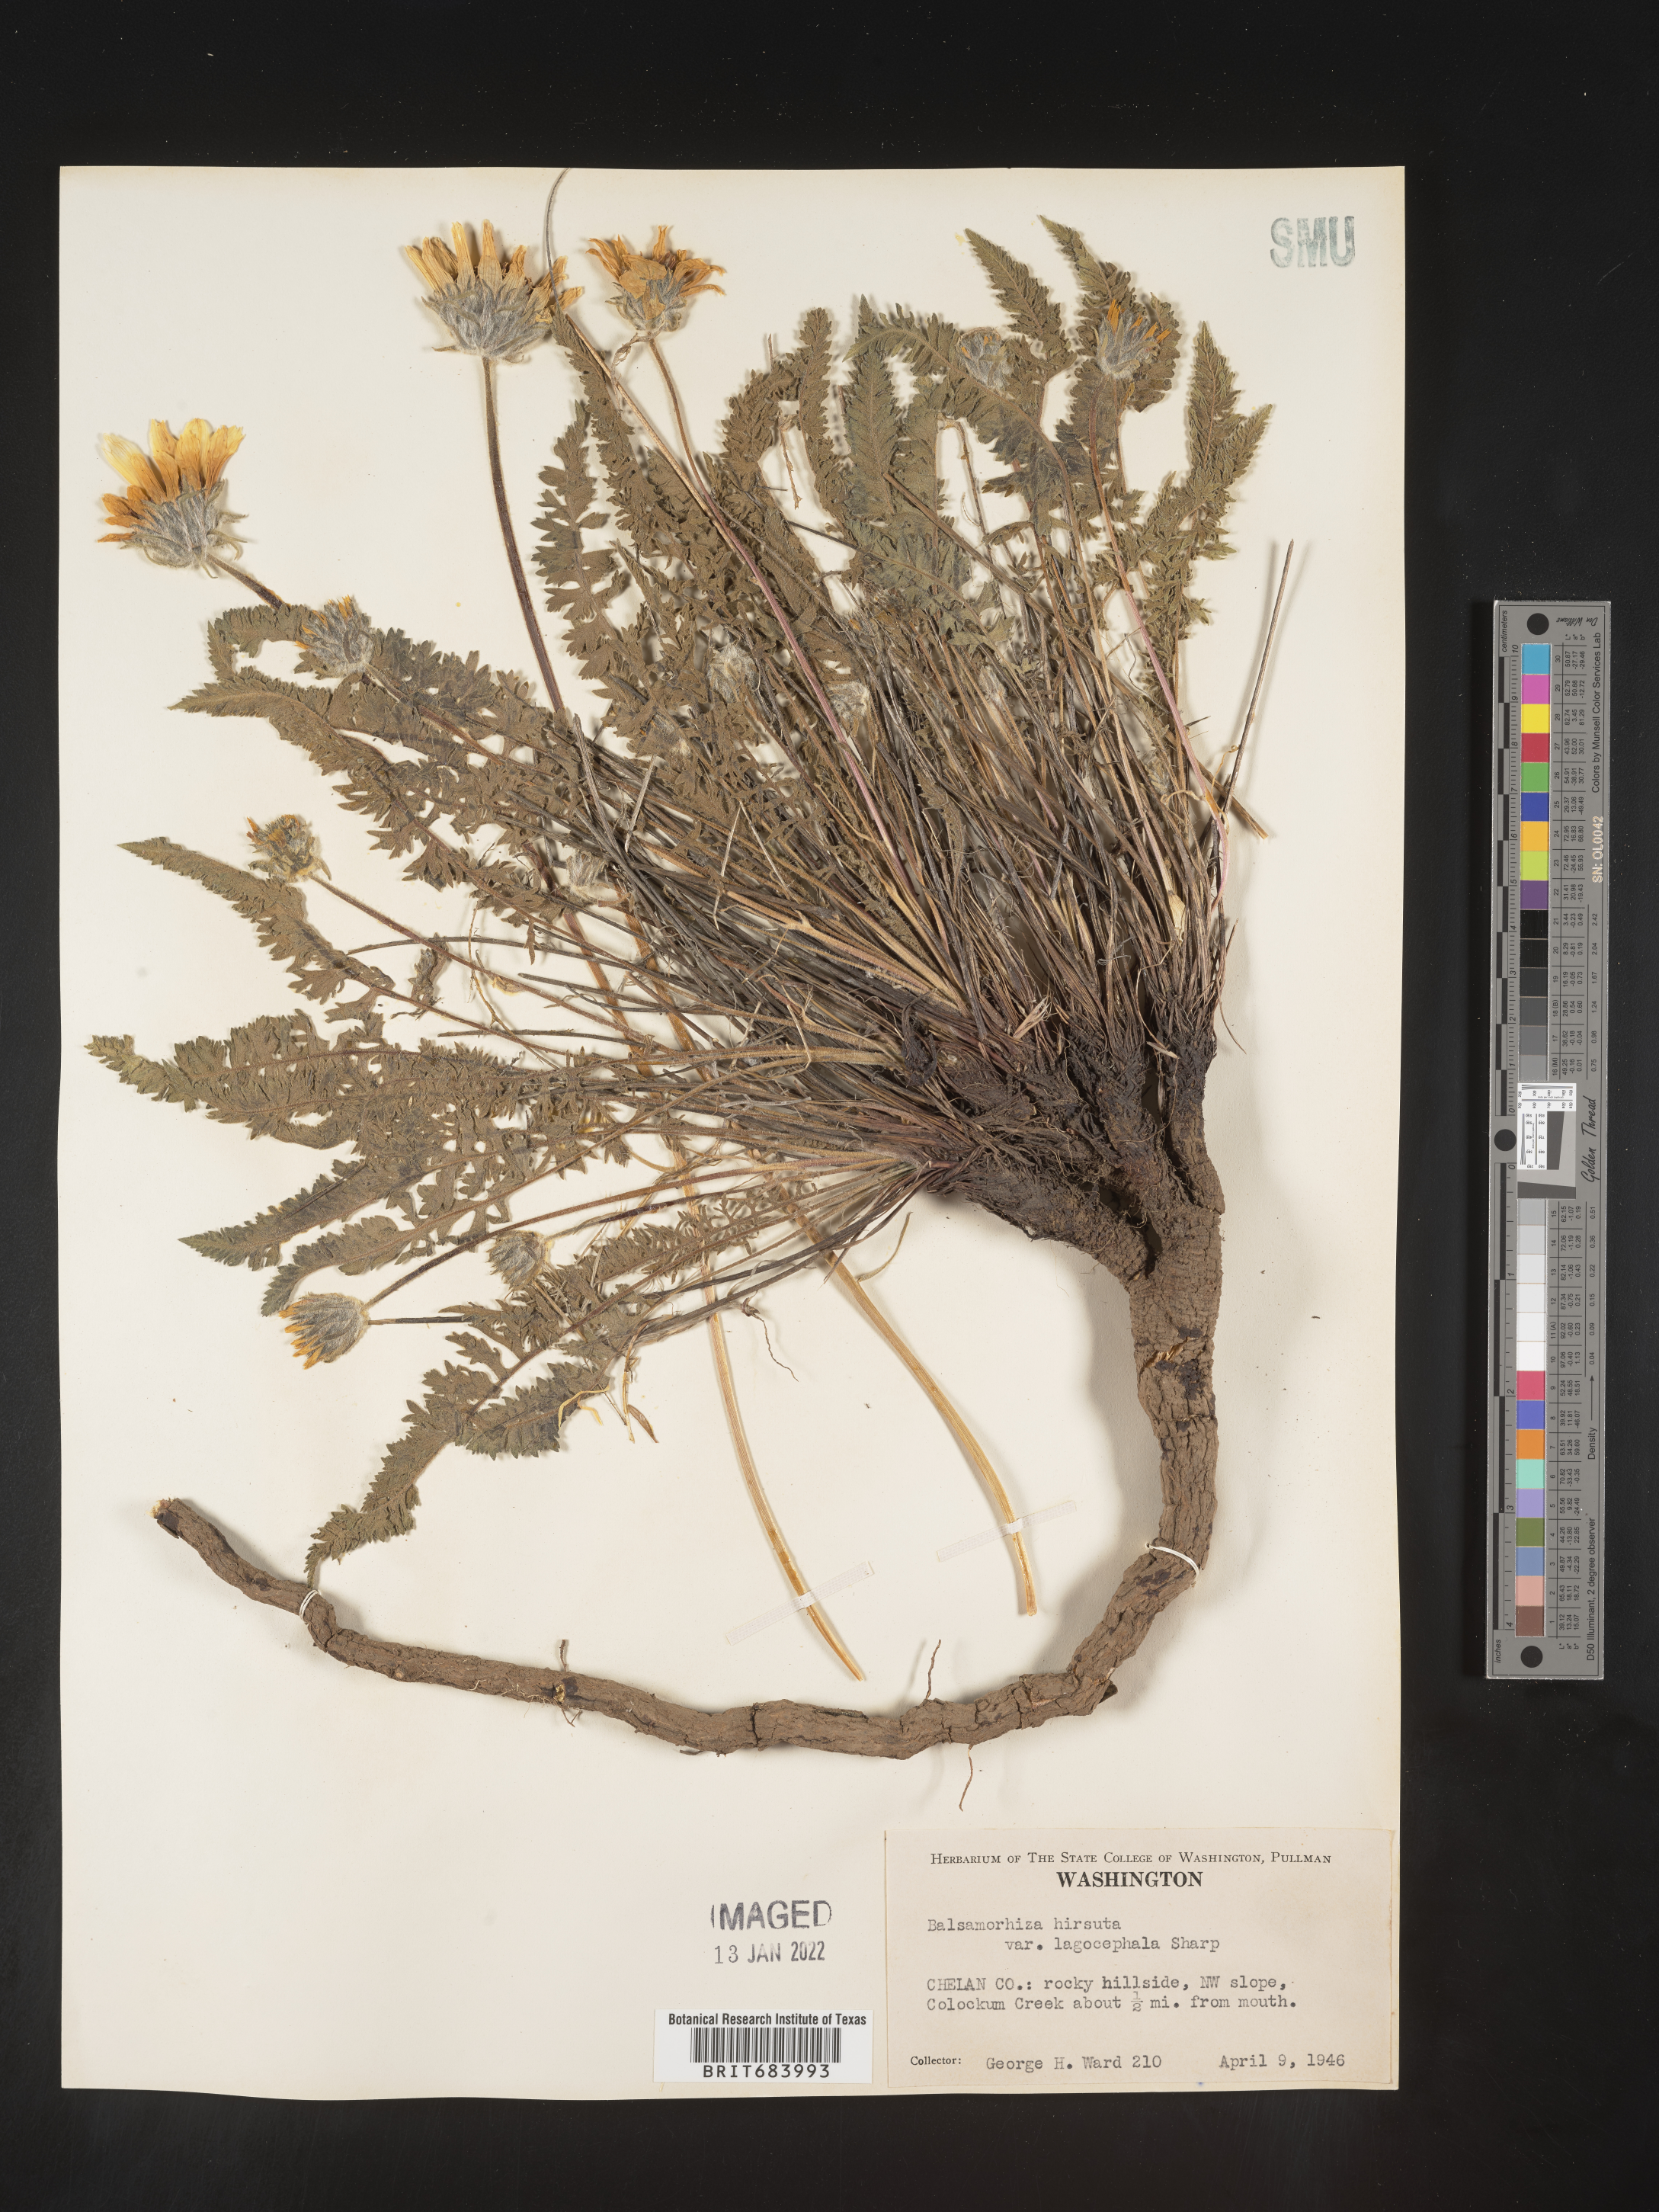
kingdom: Plantae
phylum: Tracheophyta
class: Magnoliopsida
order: Asterales
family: Asteraceae
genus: Balsamorhiza
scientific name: Balsamorhiza hookeri
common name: Hooker's balsamroot
